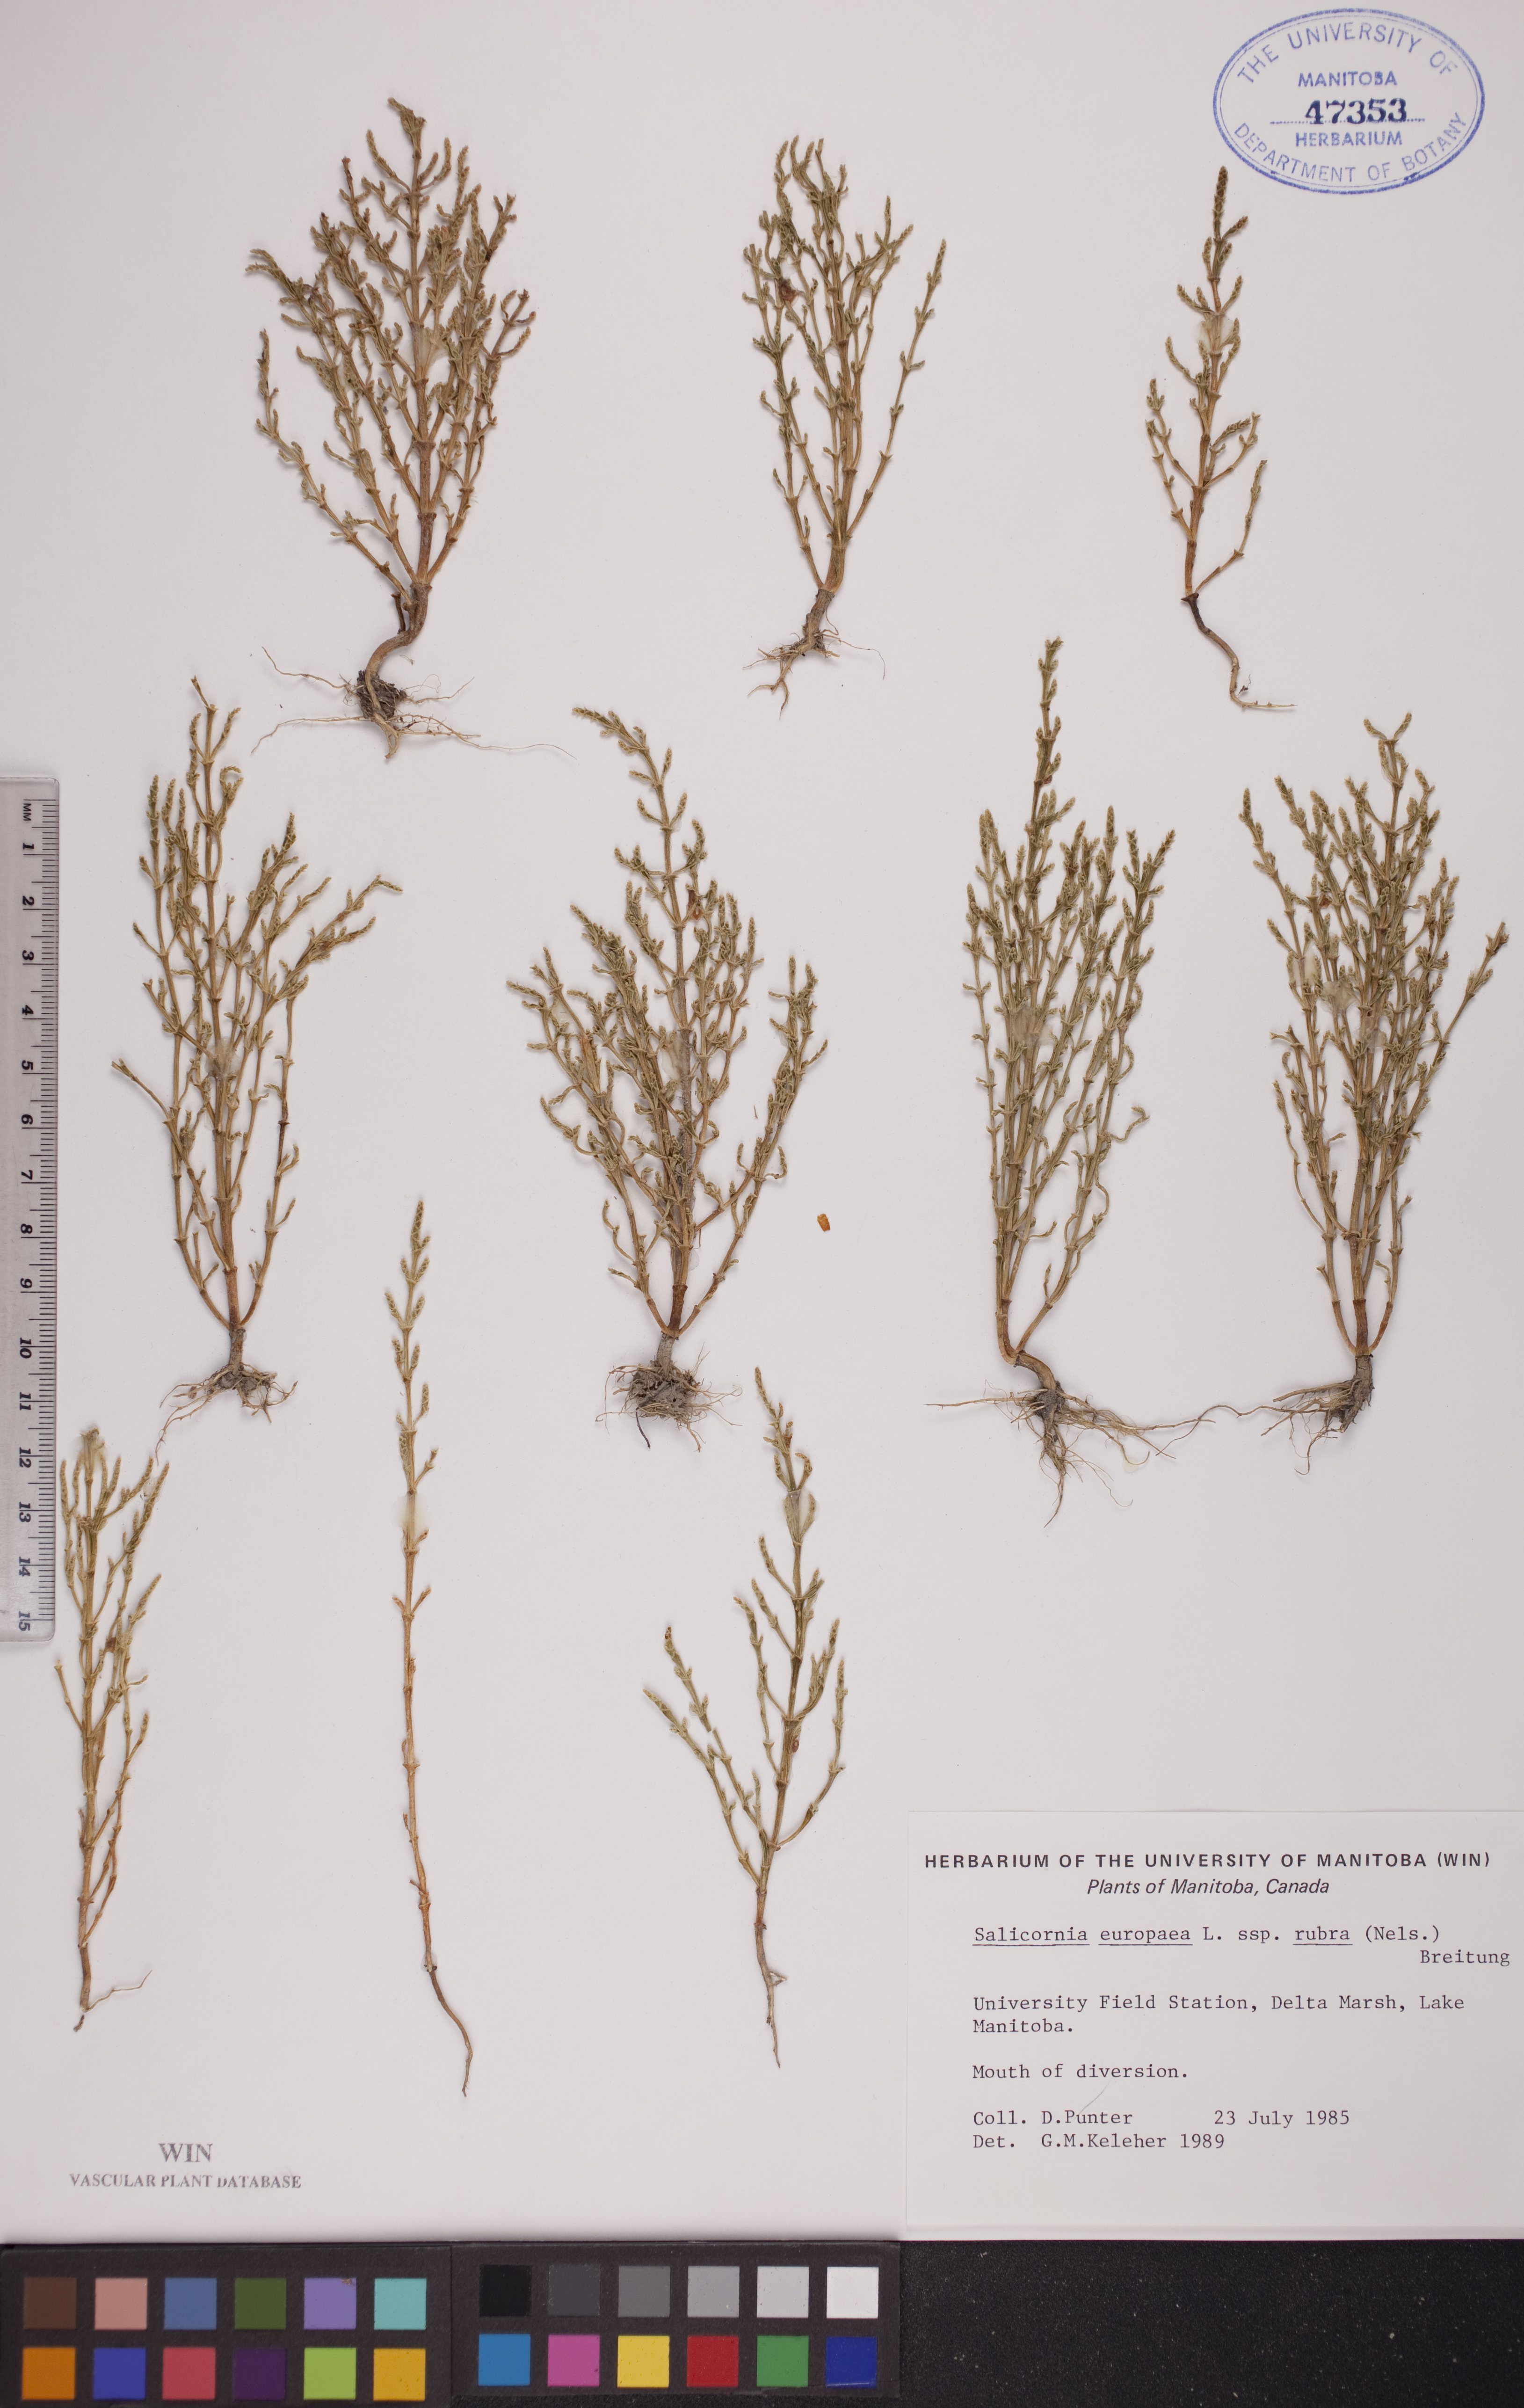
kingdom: Plantae
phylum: Tracheophyta
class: Magnoliopsida
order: Caryophyllales
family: Amaranthaceae
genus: Salicornia
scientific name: Salicornia rubra
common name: Red glasswort
